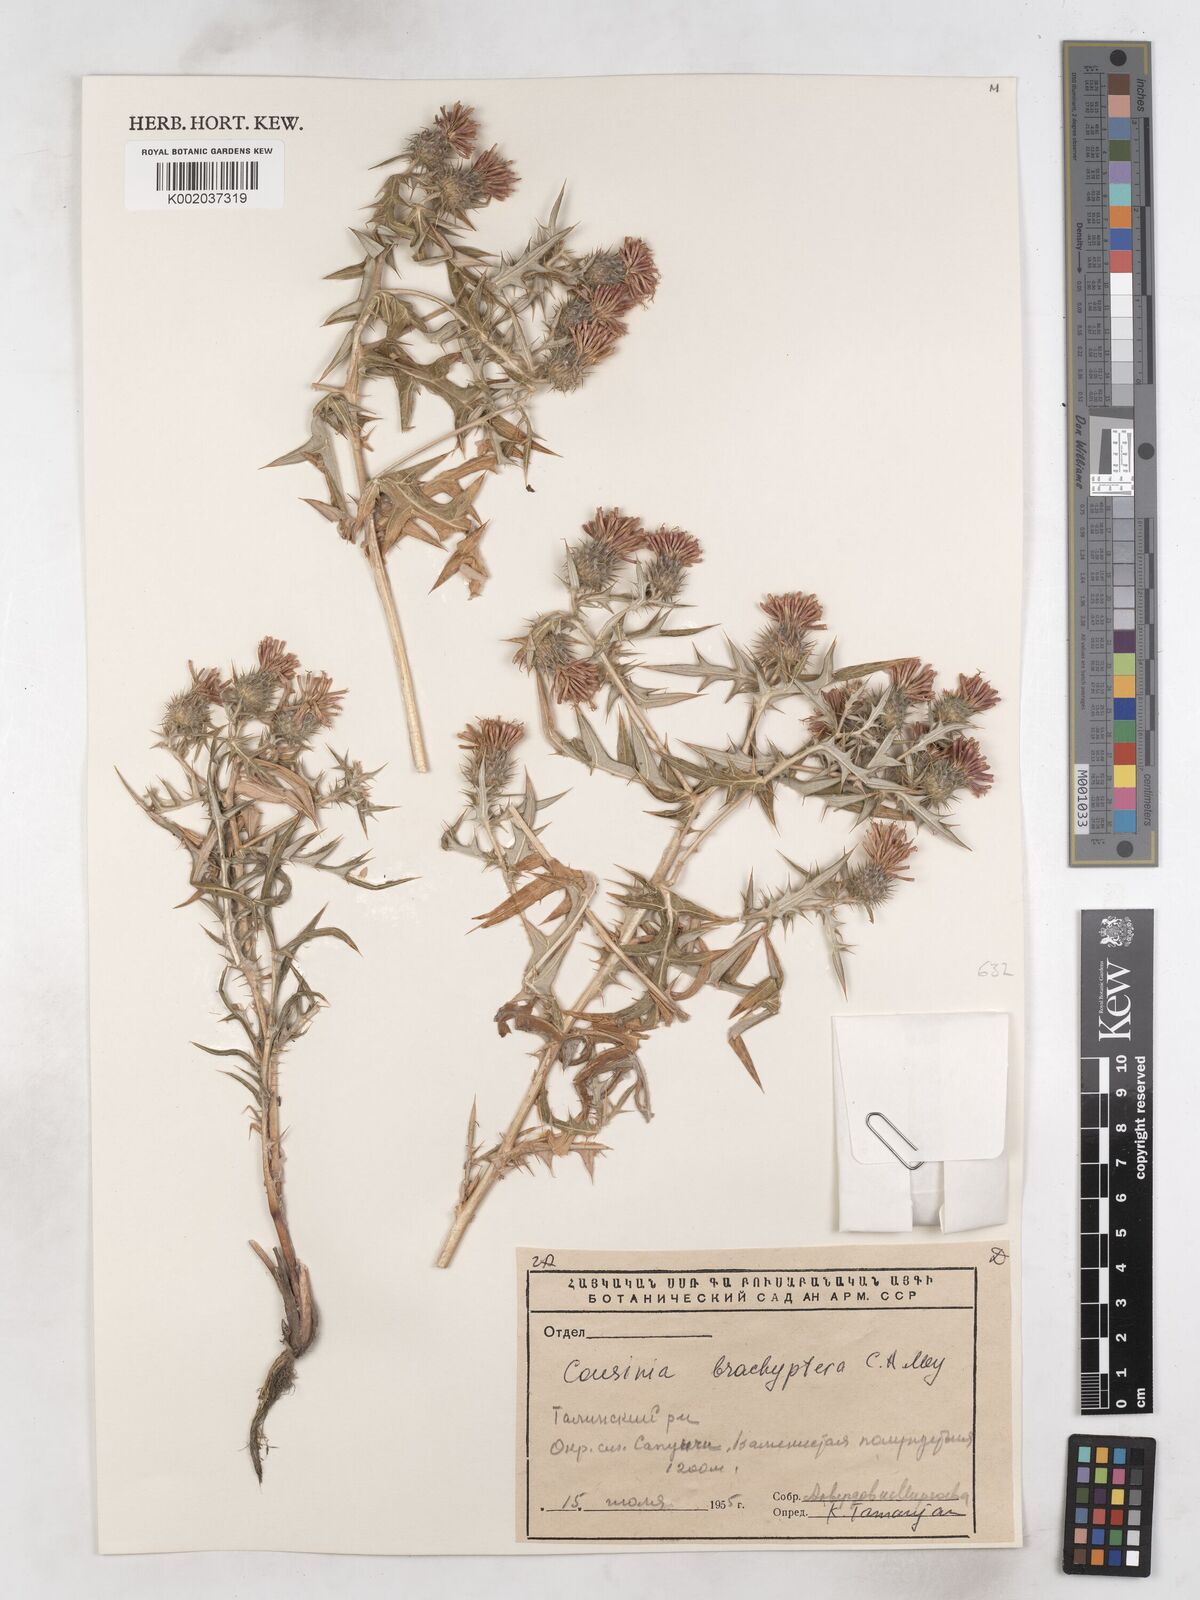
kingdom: Plantae
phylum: Tracheophyta
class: Magnoliopsida
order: Asterales
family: Asteraceae
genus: Cousinia
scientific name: Cousinia brachyptera
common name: Short-winged cousinia
